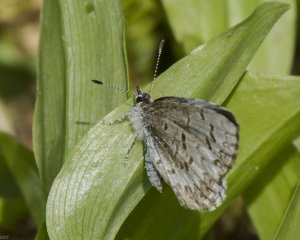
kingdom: Animalia
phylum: Arthropoda
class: Insecta
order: Lepidoptera
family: Lycaenidae
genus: Celastrina
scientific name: Celastrina lucia
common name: Northern Spring Azure
